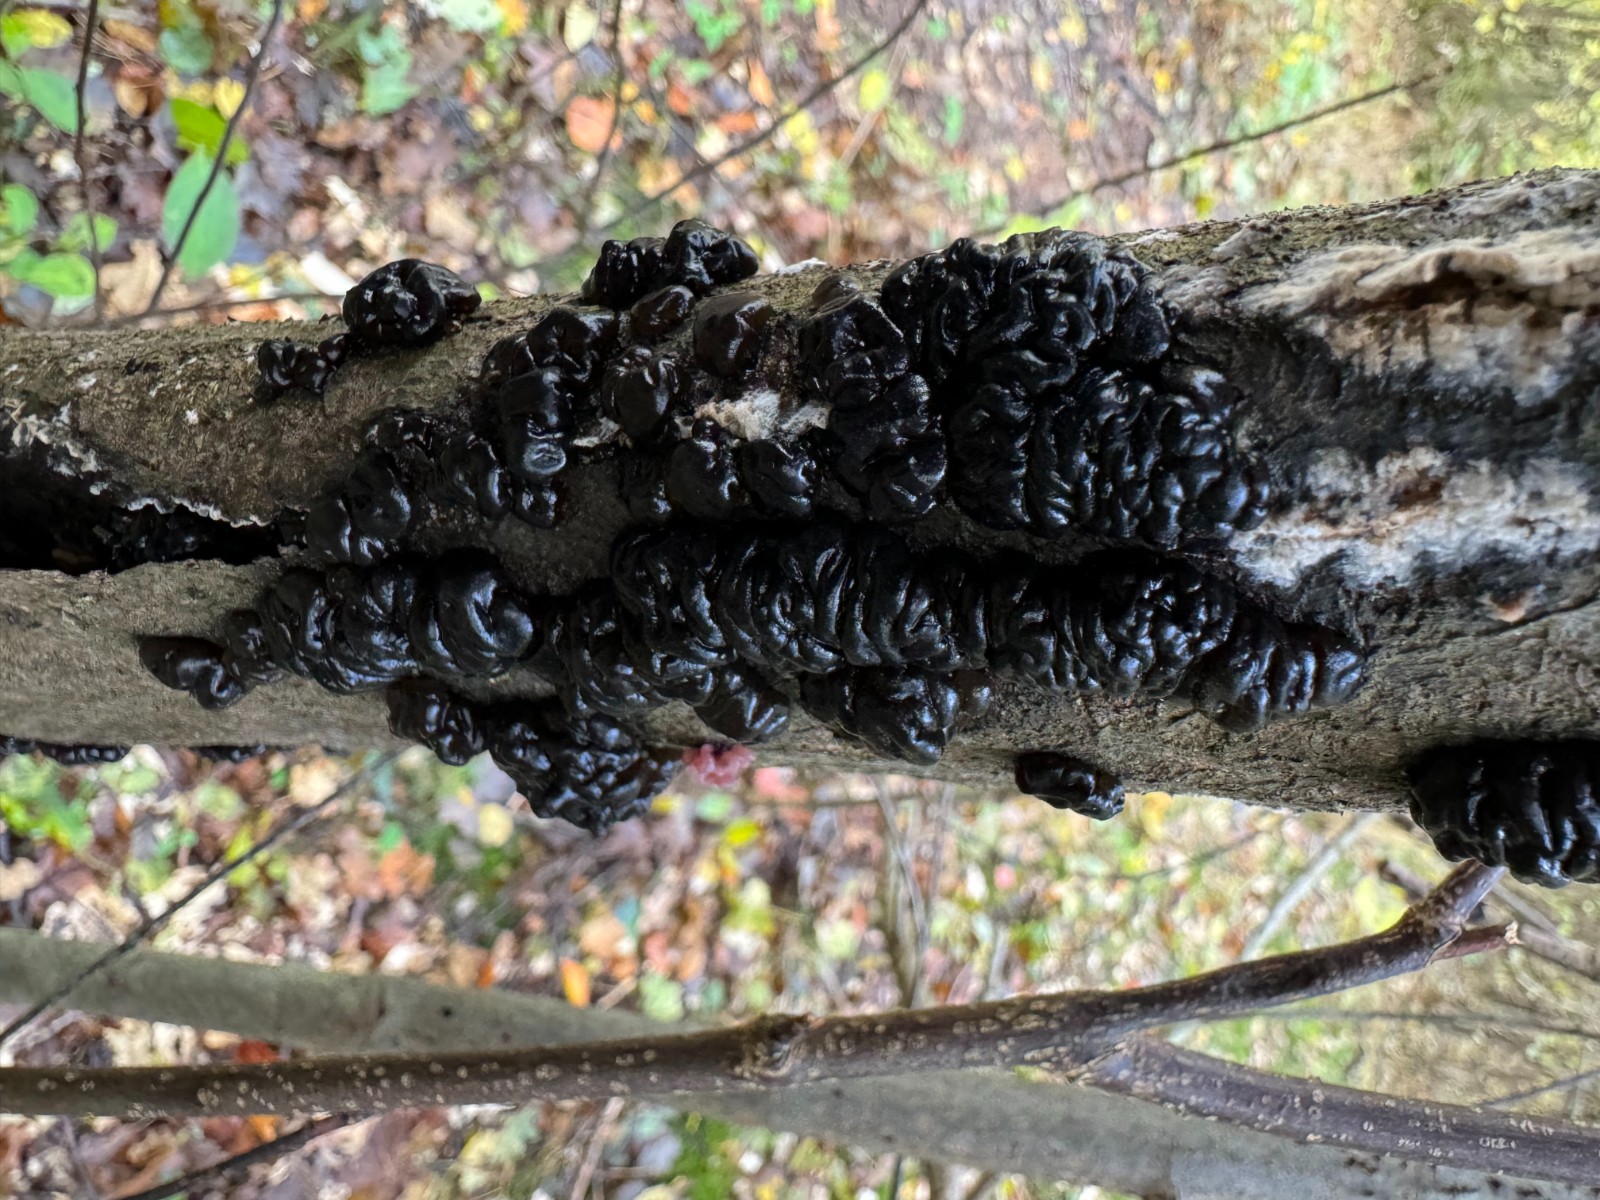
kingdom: Fungi
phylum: Basidiomycota
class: Agaricomycetes
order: Auriculariales
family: Auriculariaceae
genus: Exidia
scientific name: Exidia nigricans
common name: almindelig bævretop
